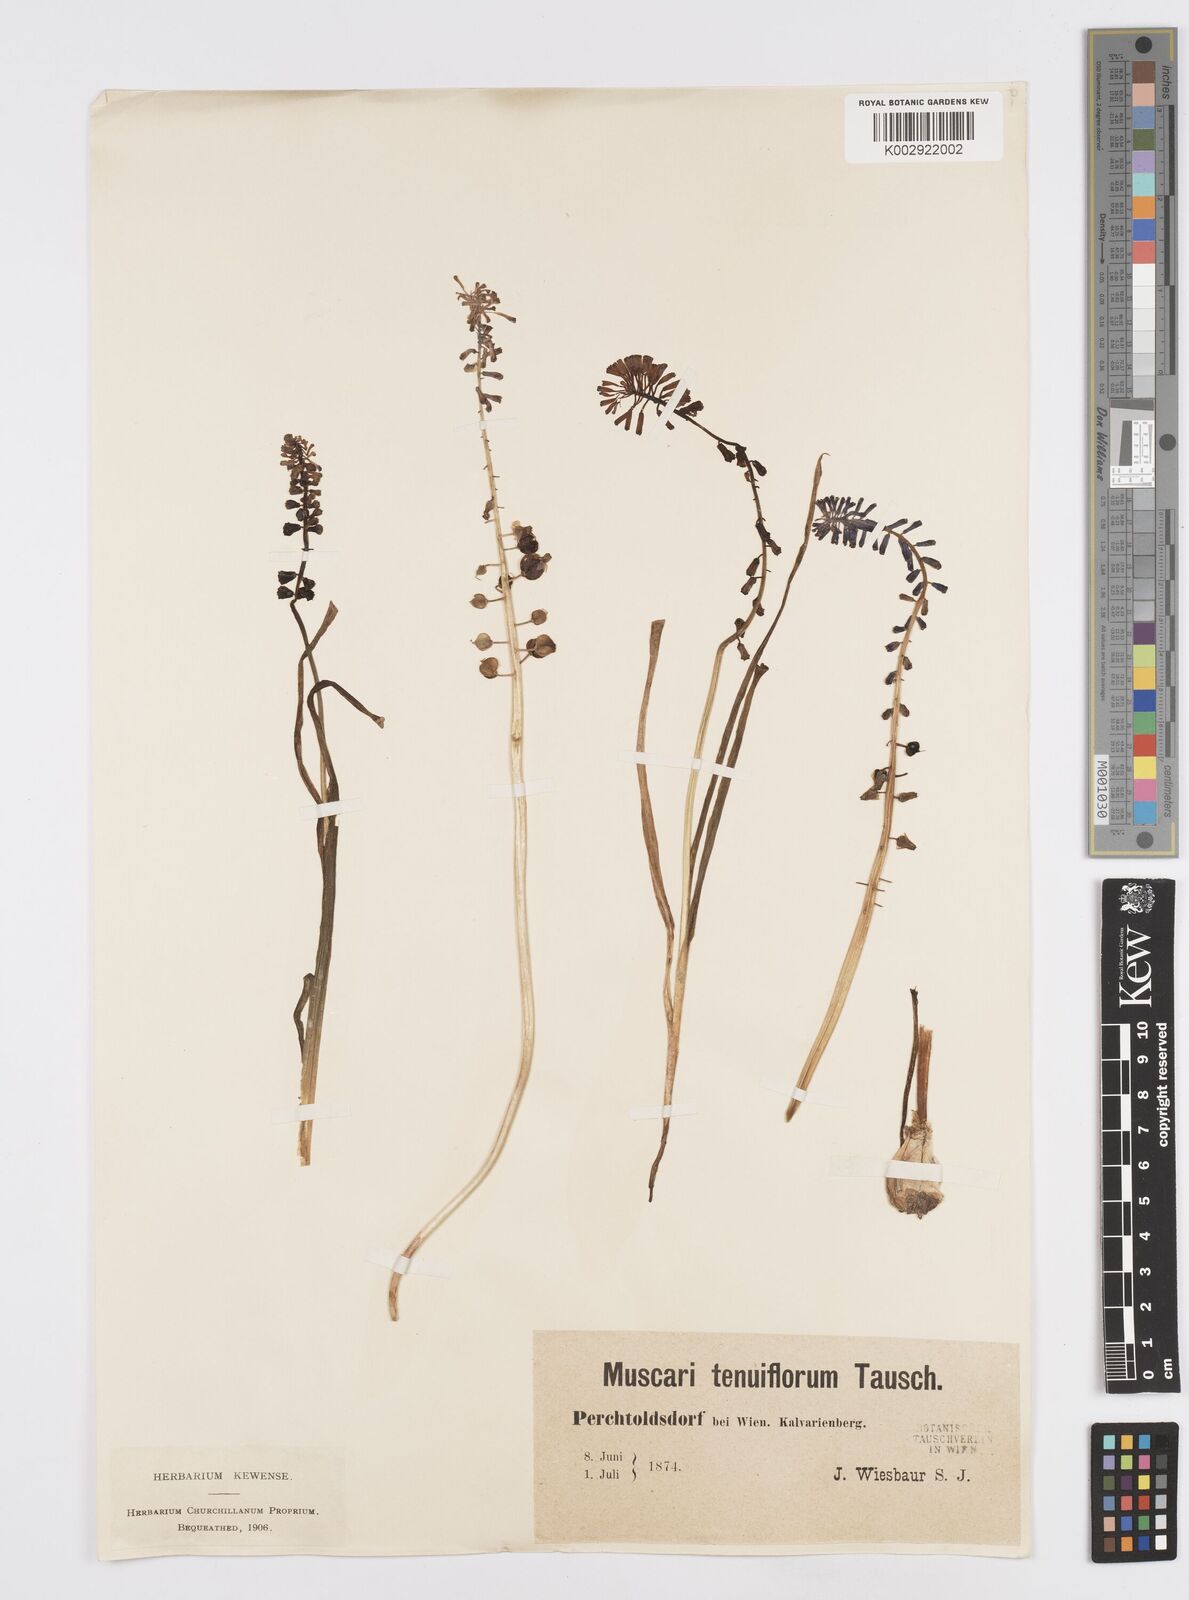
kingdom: Plantae
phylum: Tracheophyta
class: Liliopsida
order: Asparagales
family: Asparagaceae
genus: Muscari
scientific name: Muscari tenuiflorum
